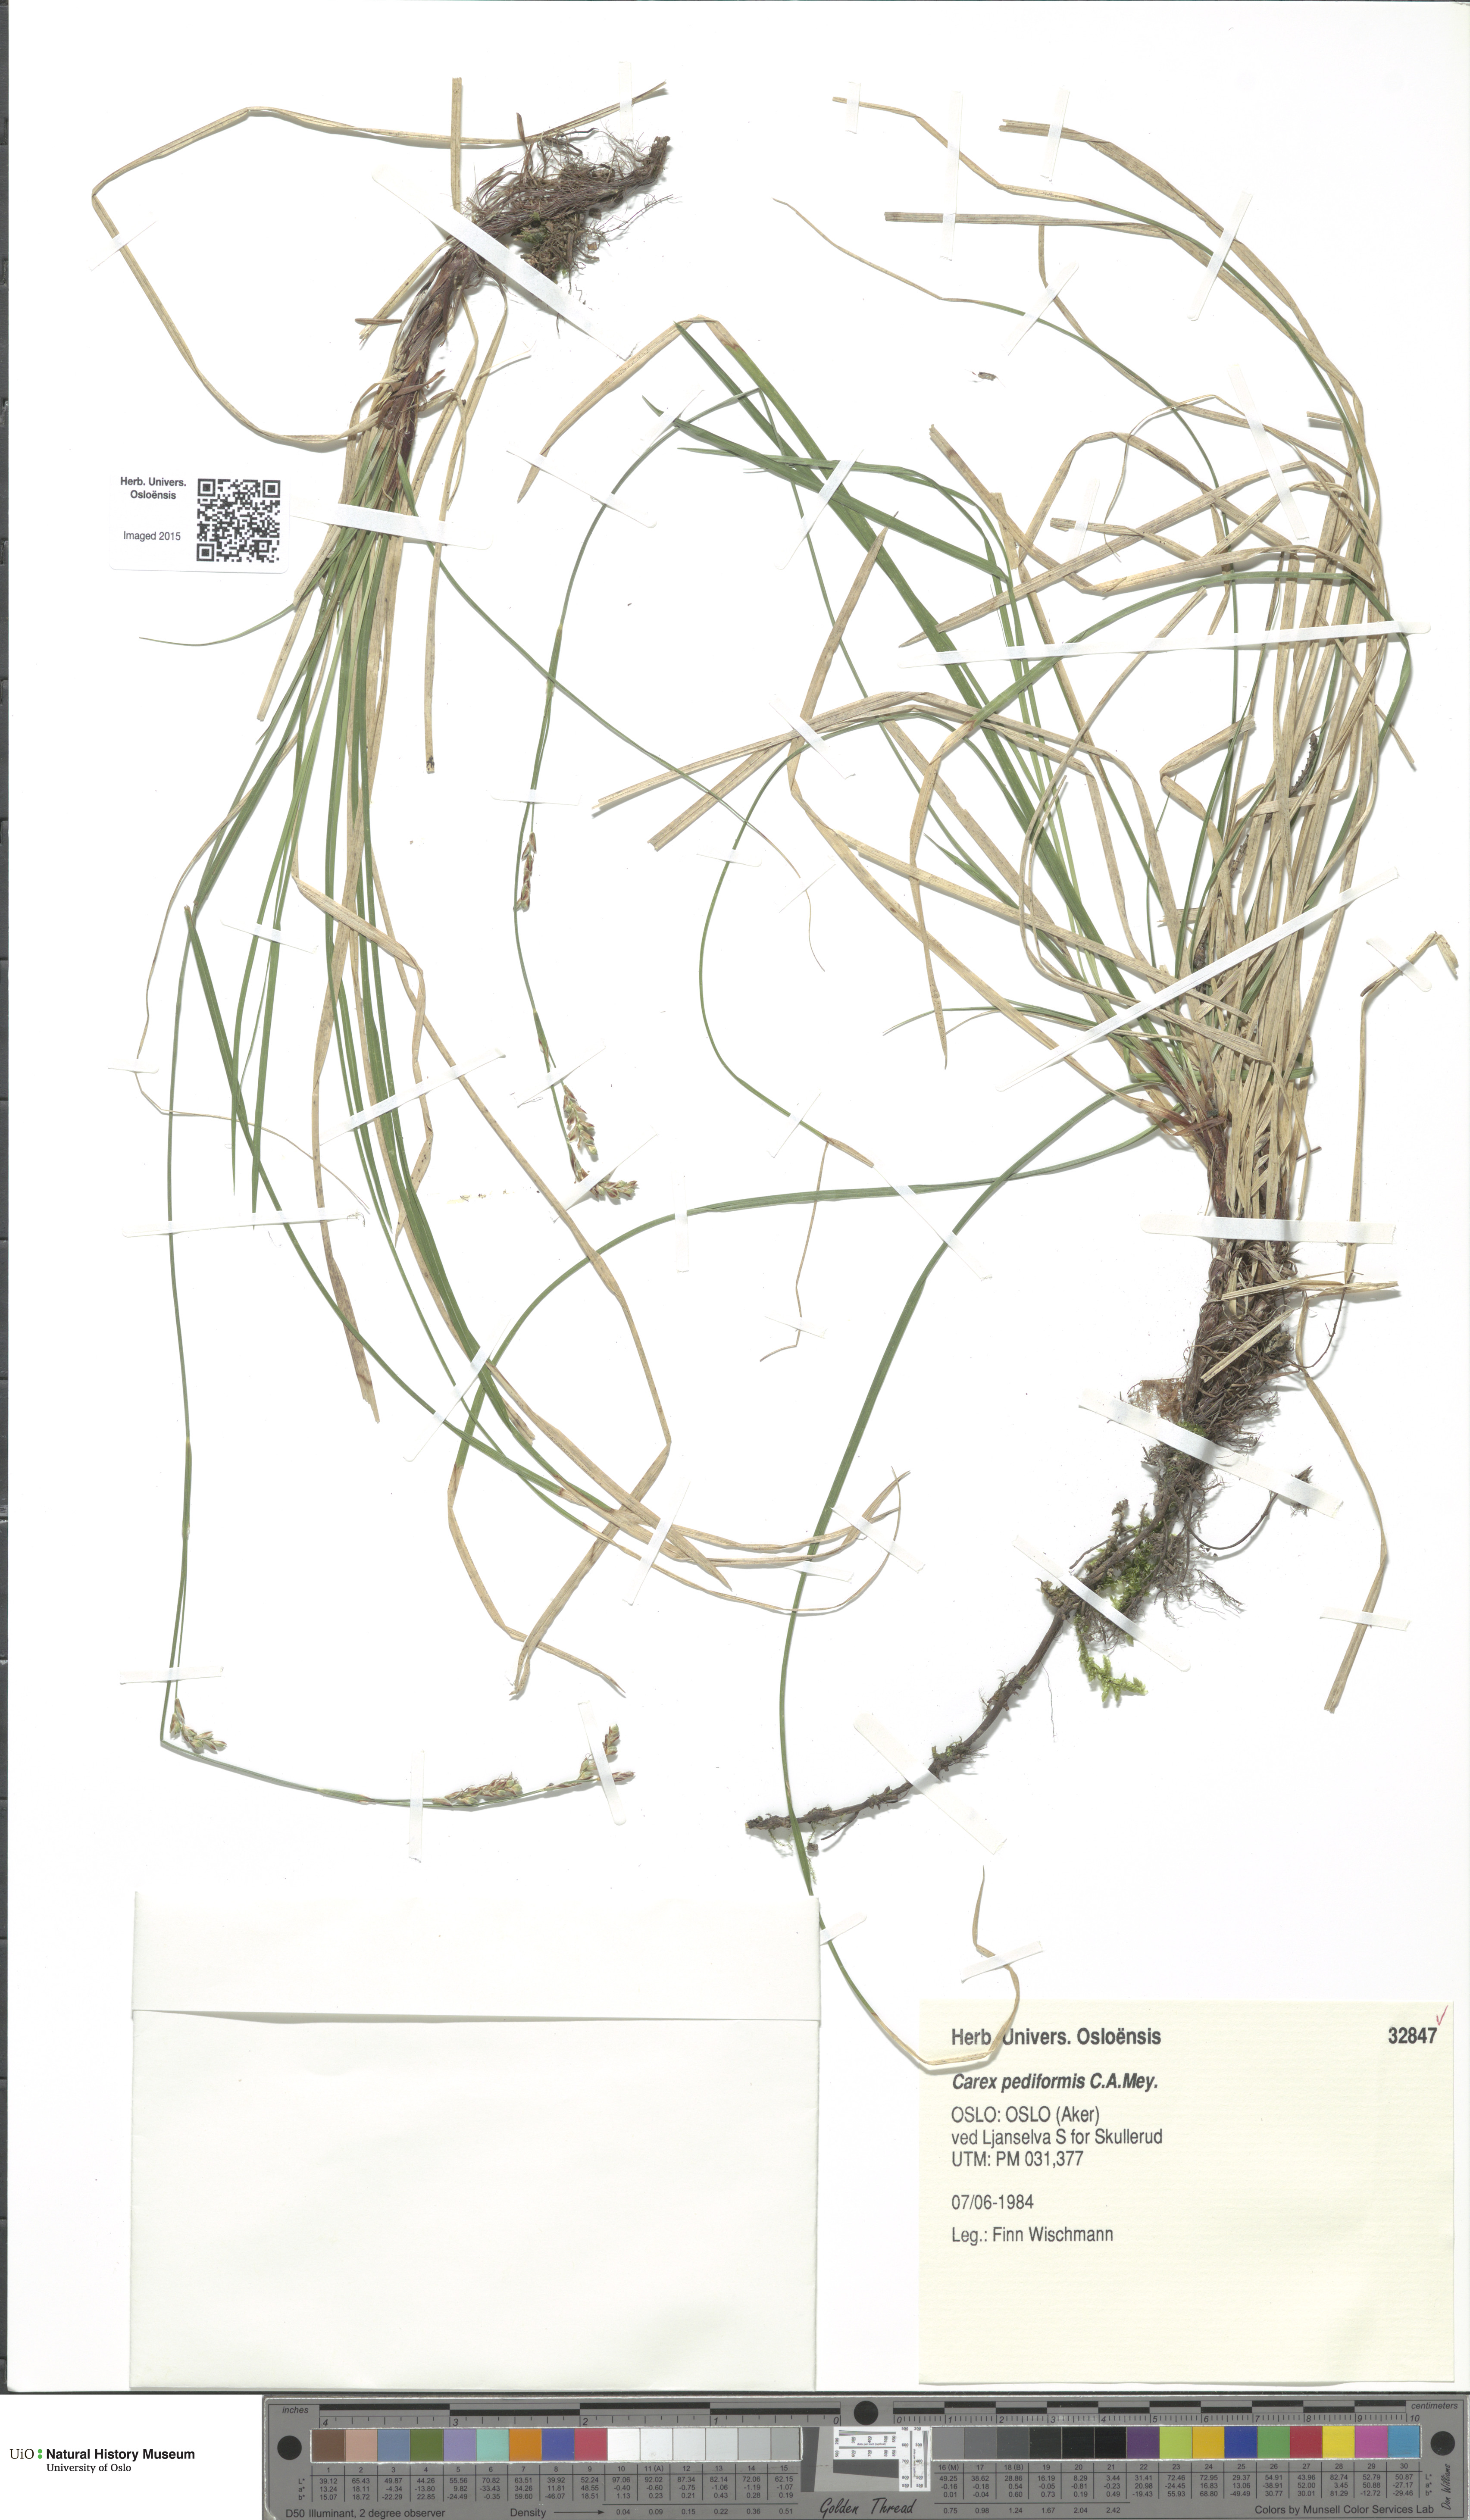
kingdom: Plantae
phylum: Tracheophyta
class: Liliopsida
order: Poales
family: Cyperaceae
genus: Carex
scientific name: Carex rhizina
